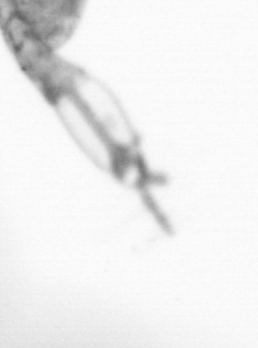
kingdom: Animalia
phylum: Arthropoda
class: Copepoda
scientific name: Copepoda
